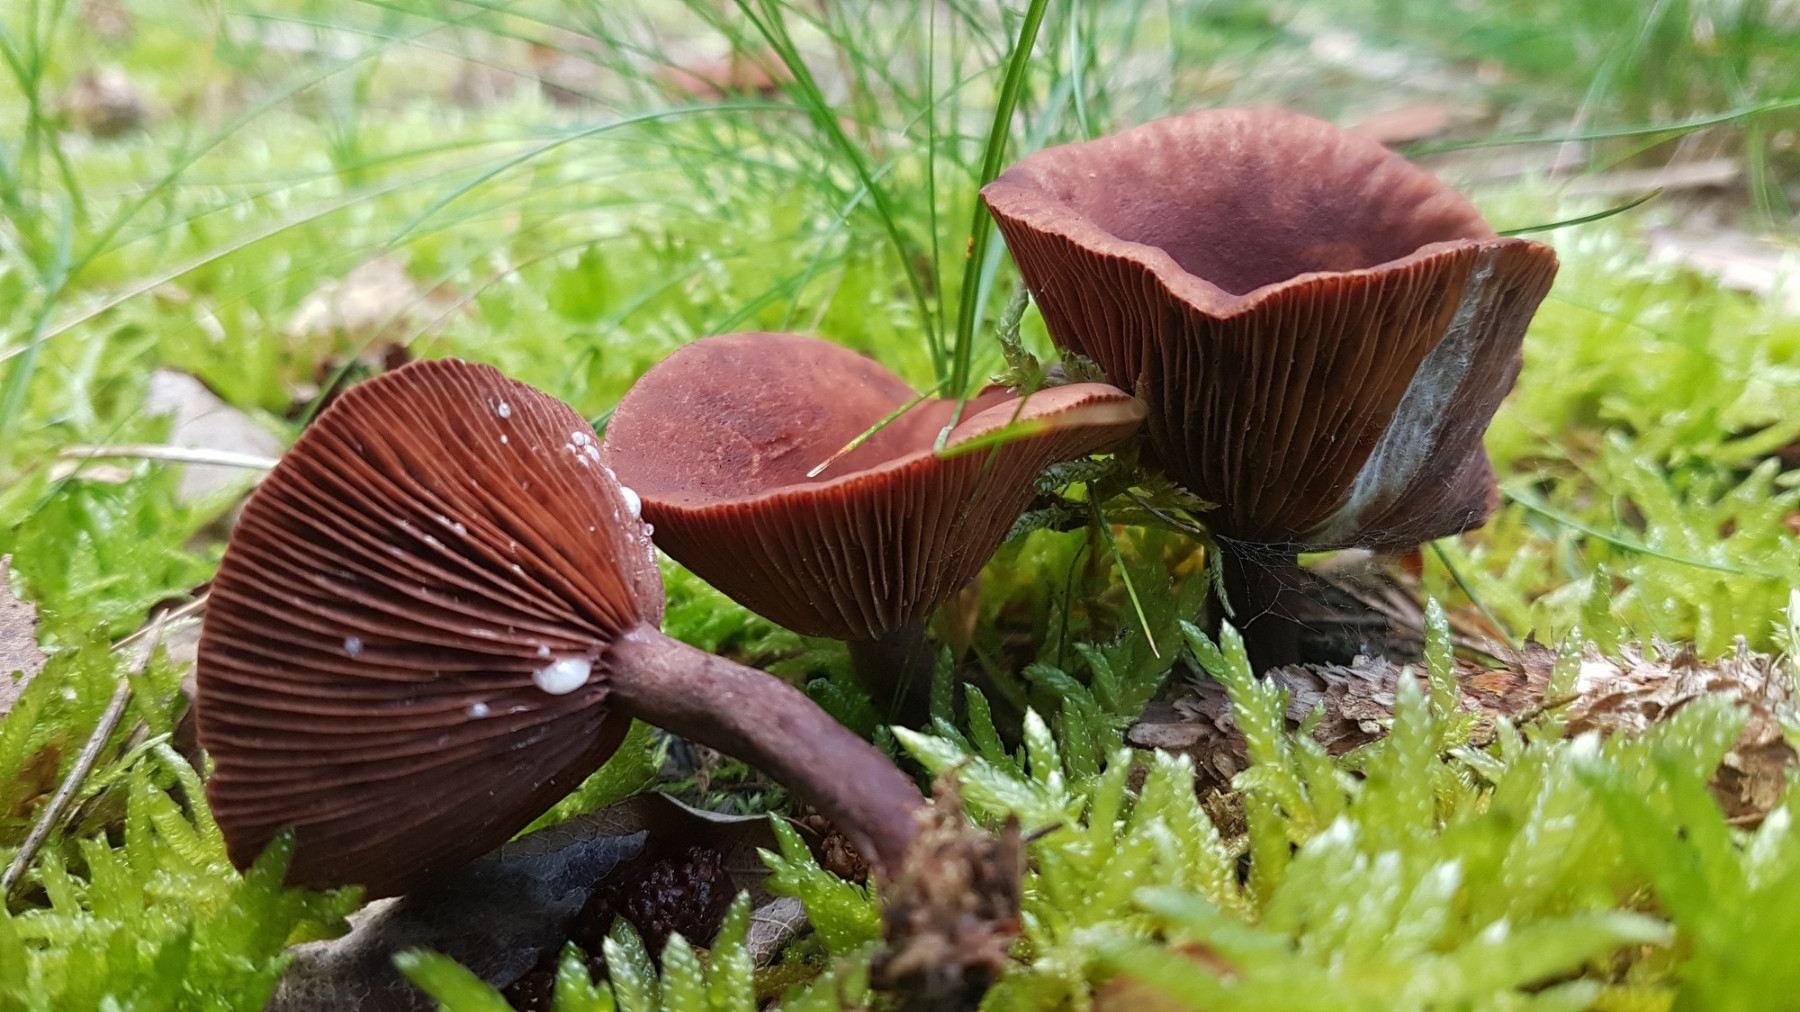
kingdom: Fungi
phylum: Basidiomycota
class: Agaricomycetes
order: Russulales
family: Russulaceae
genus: Lactarius
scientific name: Lactarius camphoratus
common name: kamfer-mælkehat
